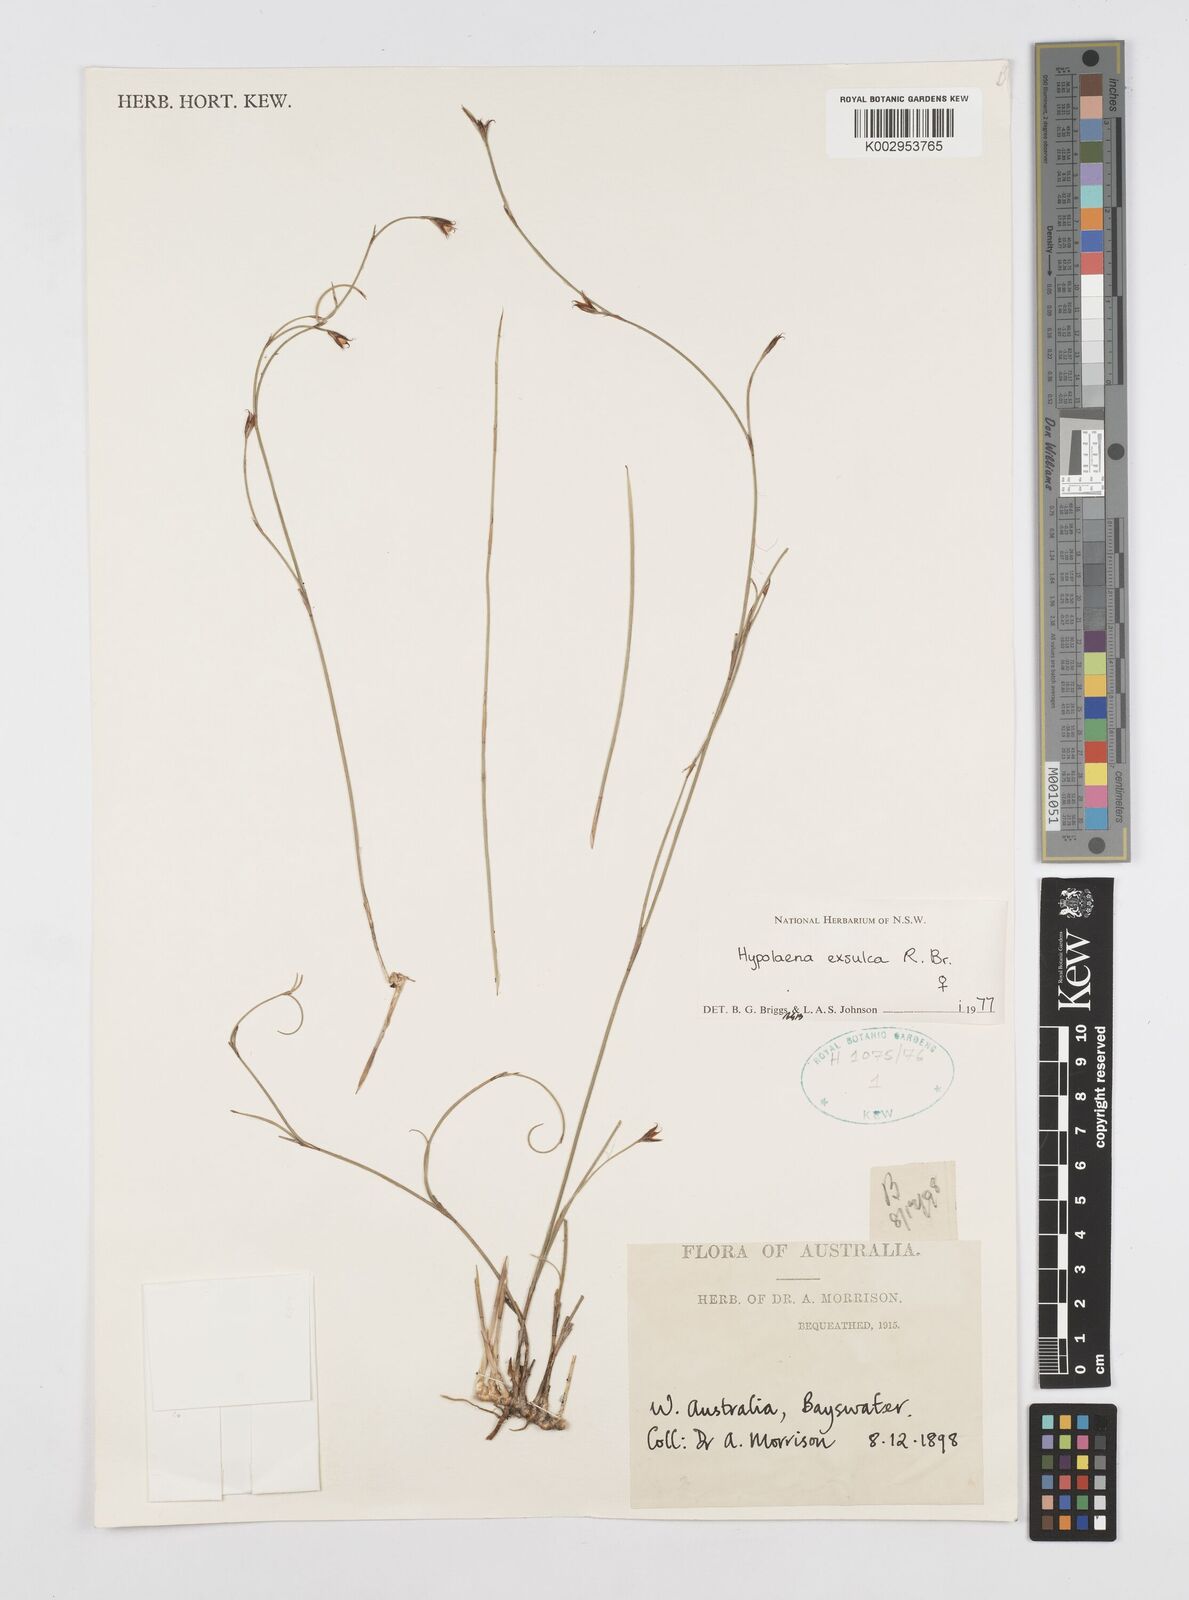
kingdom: Plantae
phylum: Tracheophyta
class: Liliopsida
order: Poales
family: Restionaceae
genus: Hypolaena
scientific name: Hypolaena exsulca
